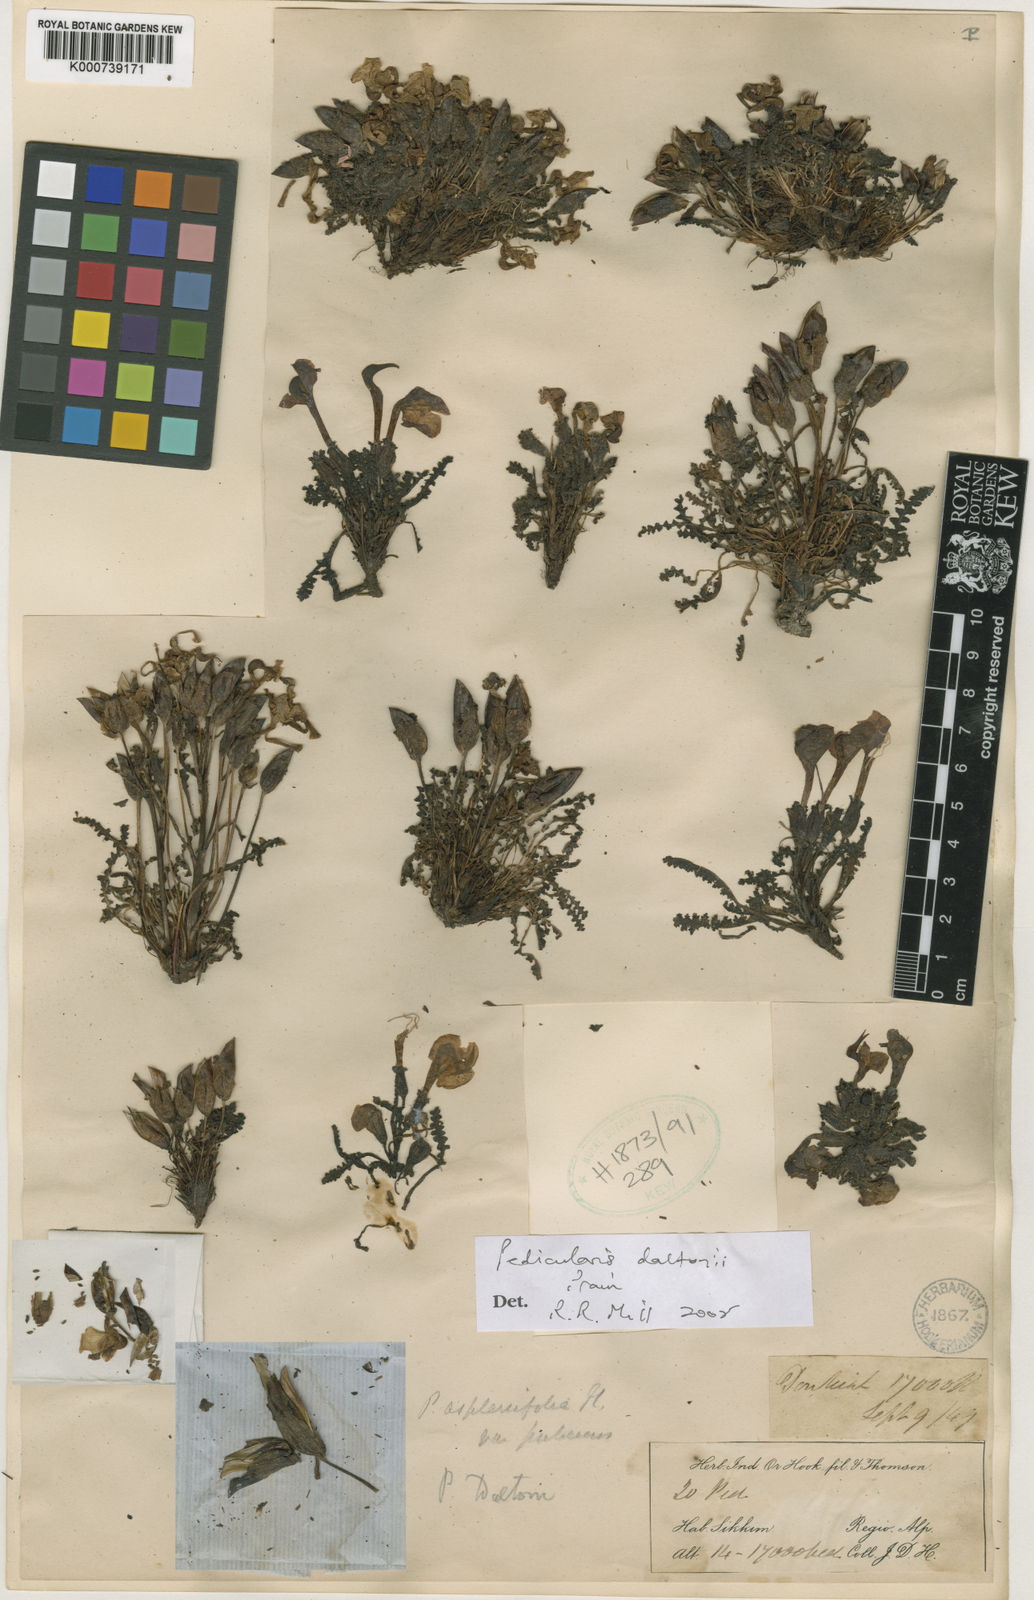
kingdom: Plantae
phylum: Tracheophyta
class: Magnoliopsida
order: Lamiales
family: Orobanchaceae
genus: Pedicularis
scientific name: Pedicularis daltonii
